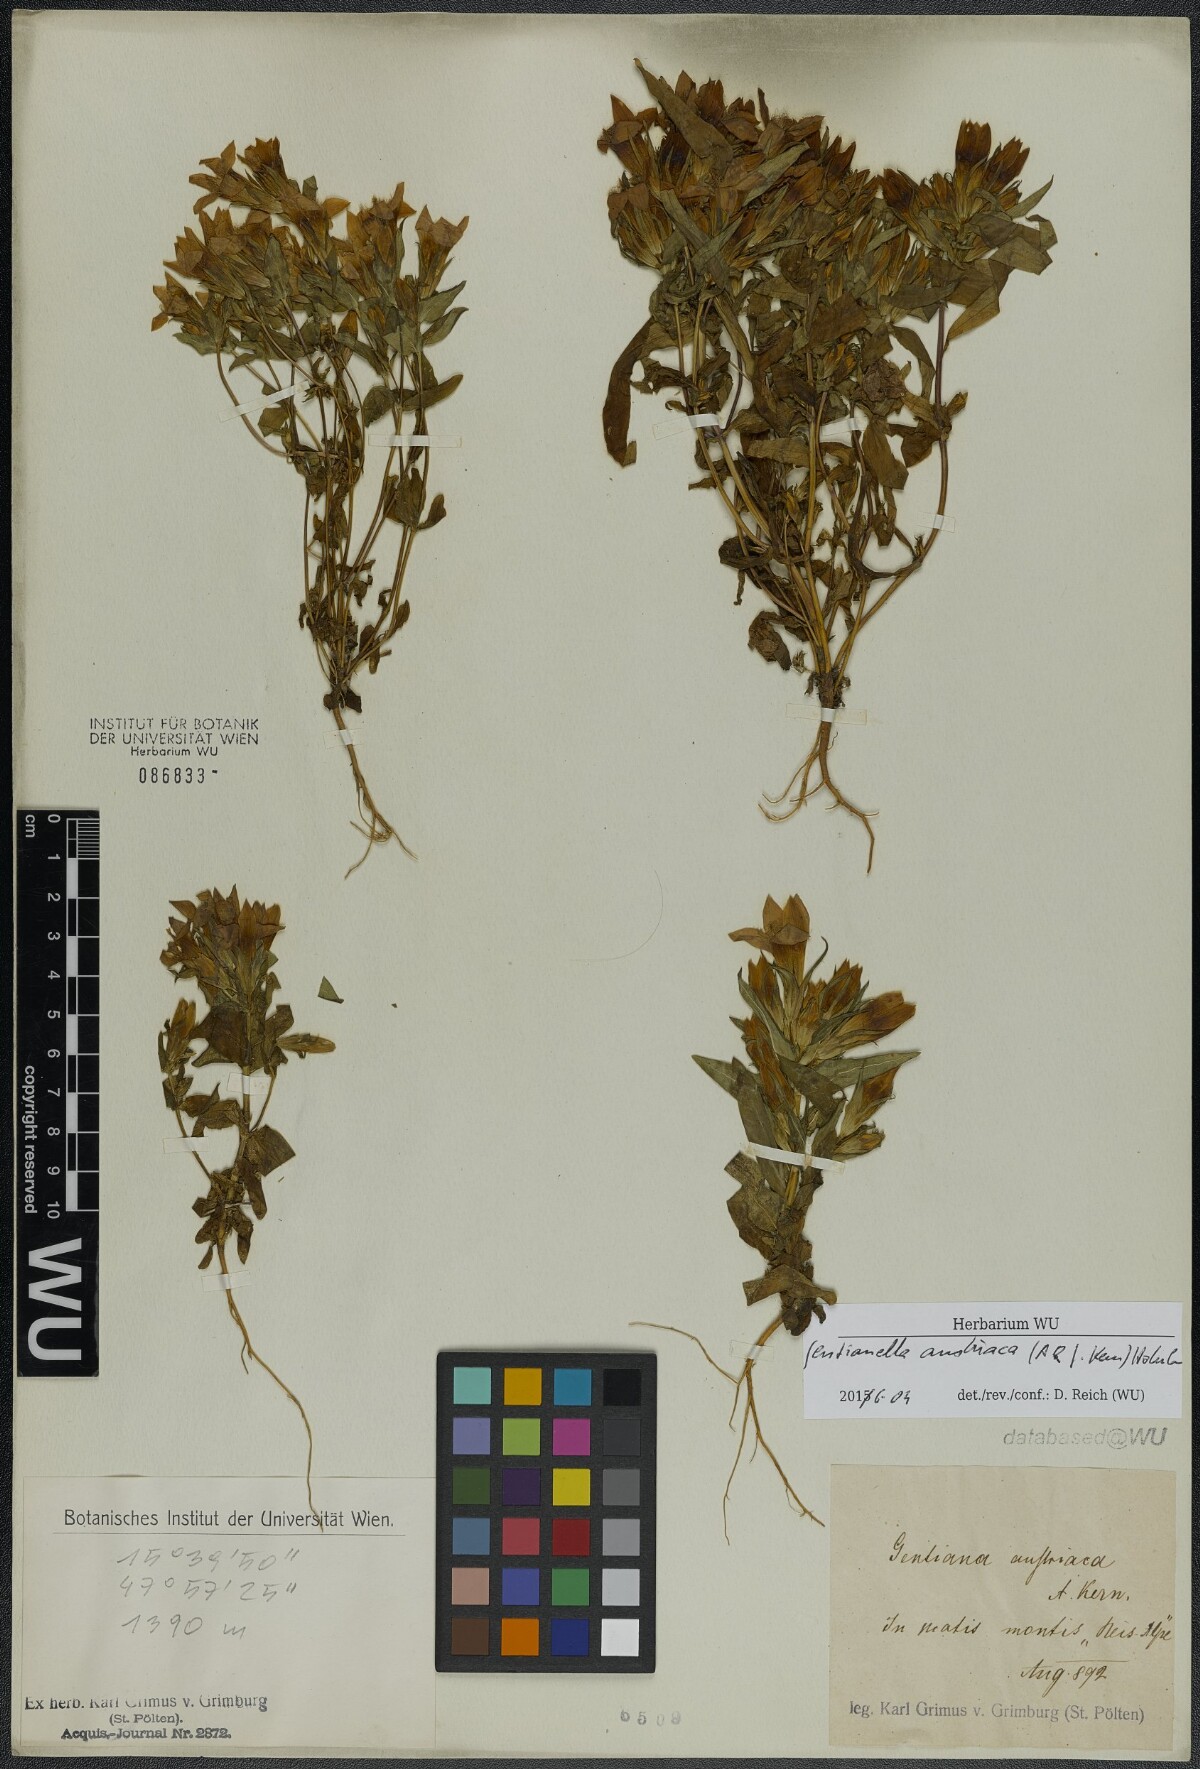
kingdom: Plantae
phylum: Tracheophyta
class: Magnoliopsida
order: Gentianales
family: Gentianaceae
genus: Gentianella
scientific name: Gentianella austriaca
